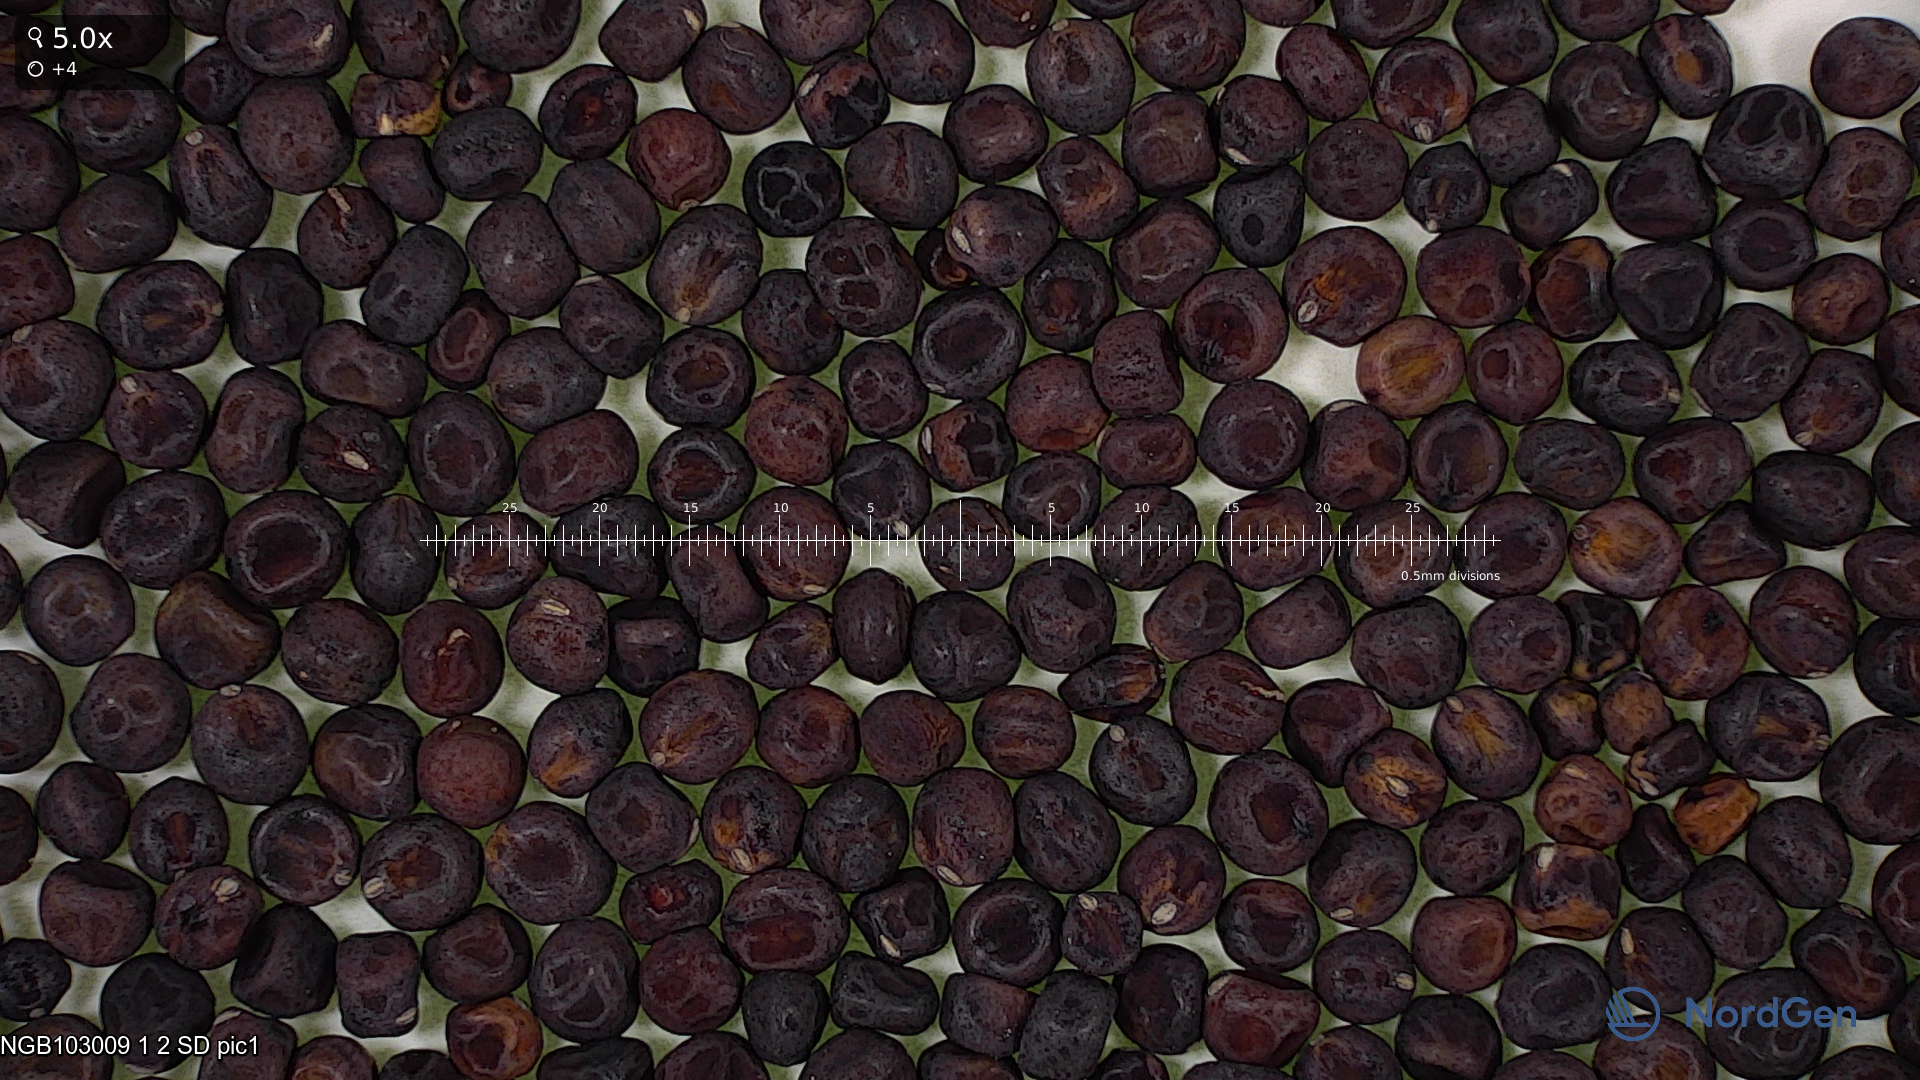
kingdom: Plantae
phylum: Tracheophyta
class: Magnoliopsida
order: Fabales
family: Fabaceae
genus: Lathyrus
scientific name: Lathyrus oleraceus
